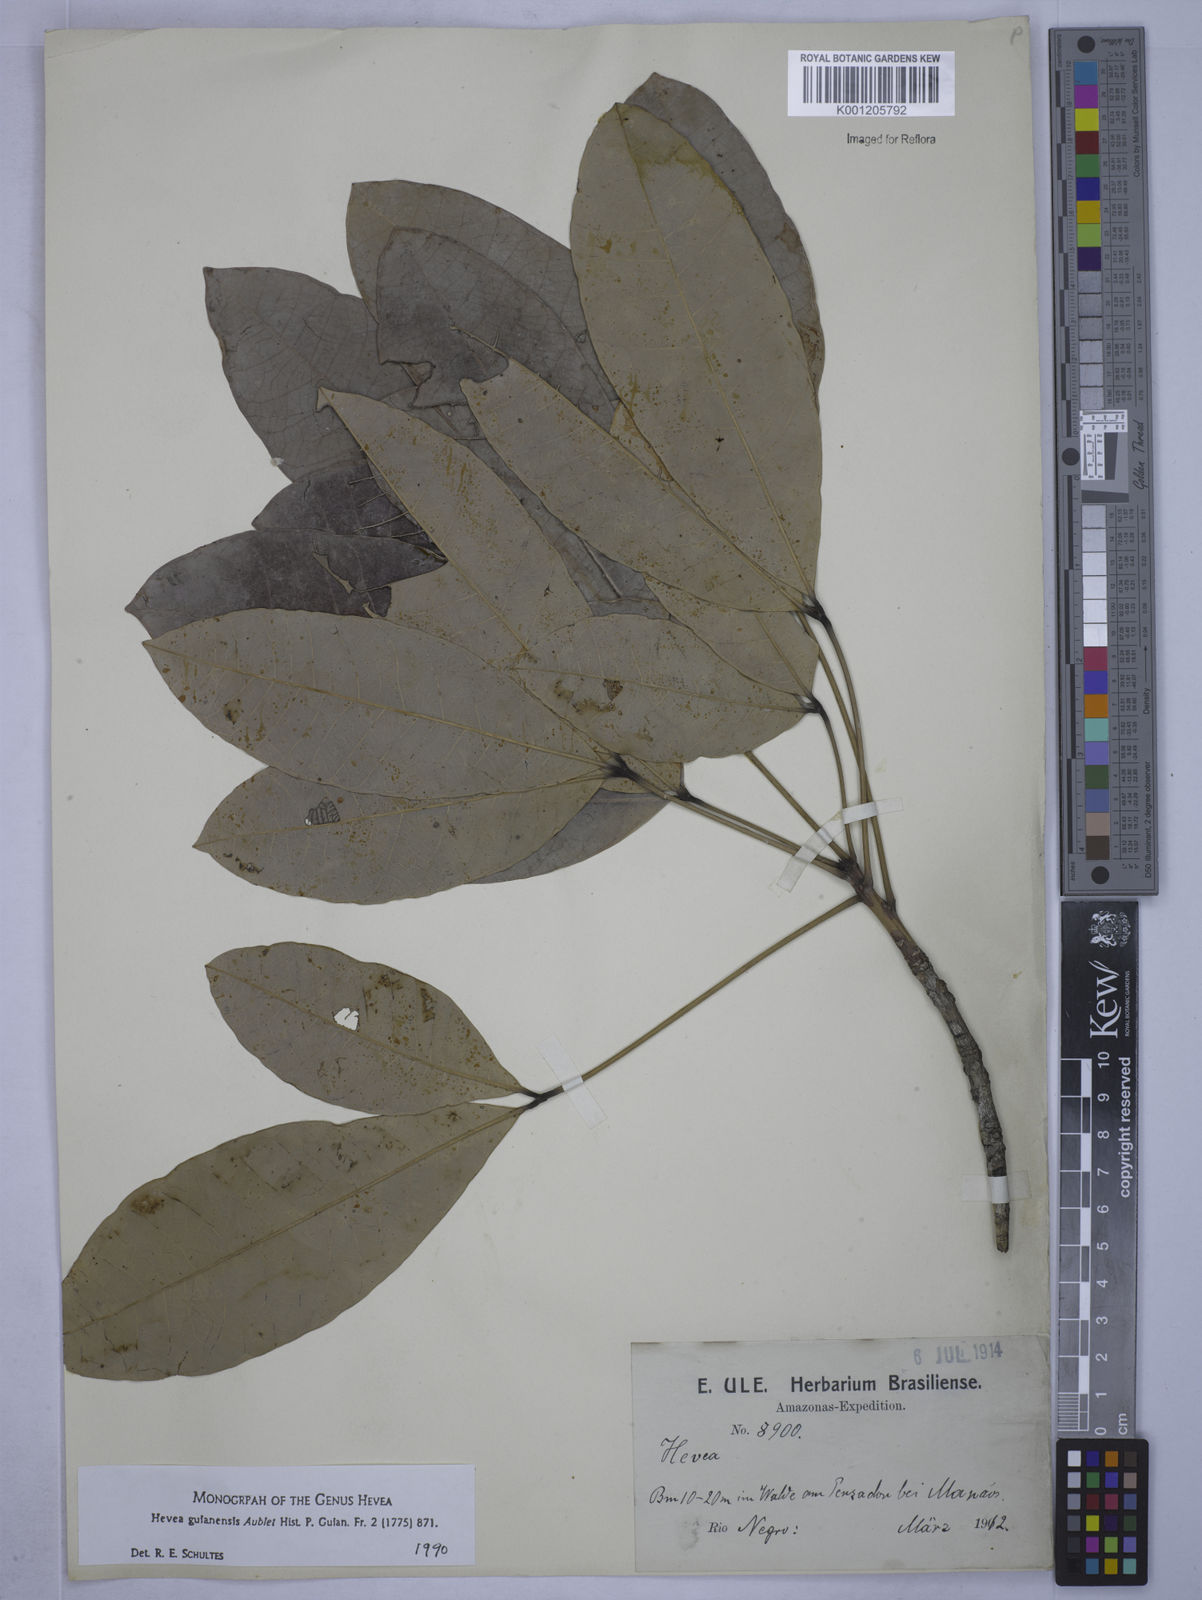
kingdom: Plantae
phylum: Tracheophyta
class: Magnoliopsida
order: Malpighiales
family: Euphorbiaceae
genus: Hevea
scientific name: Hevea guianensis
